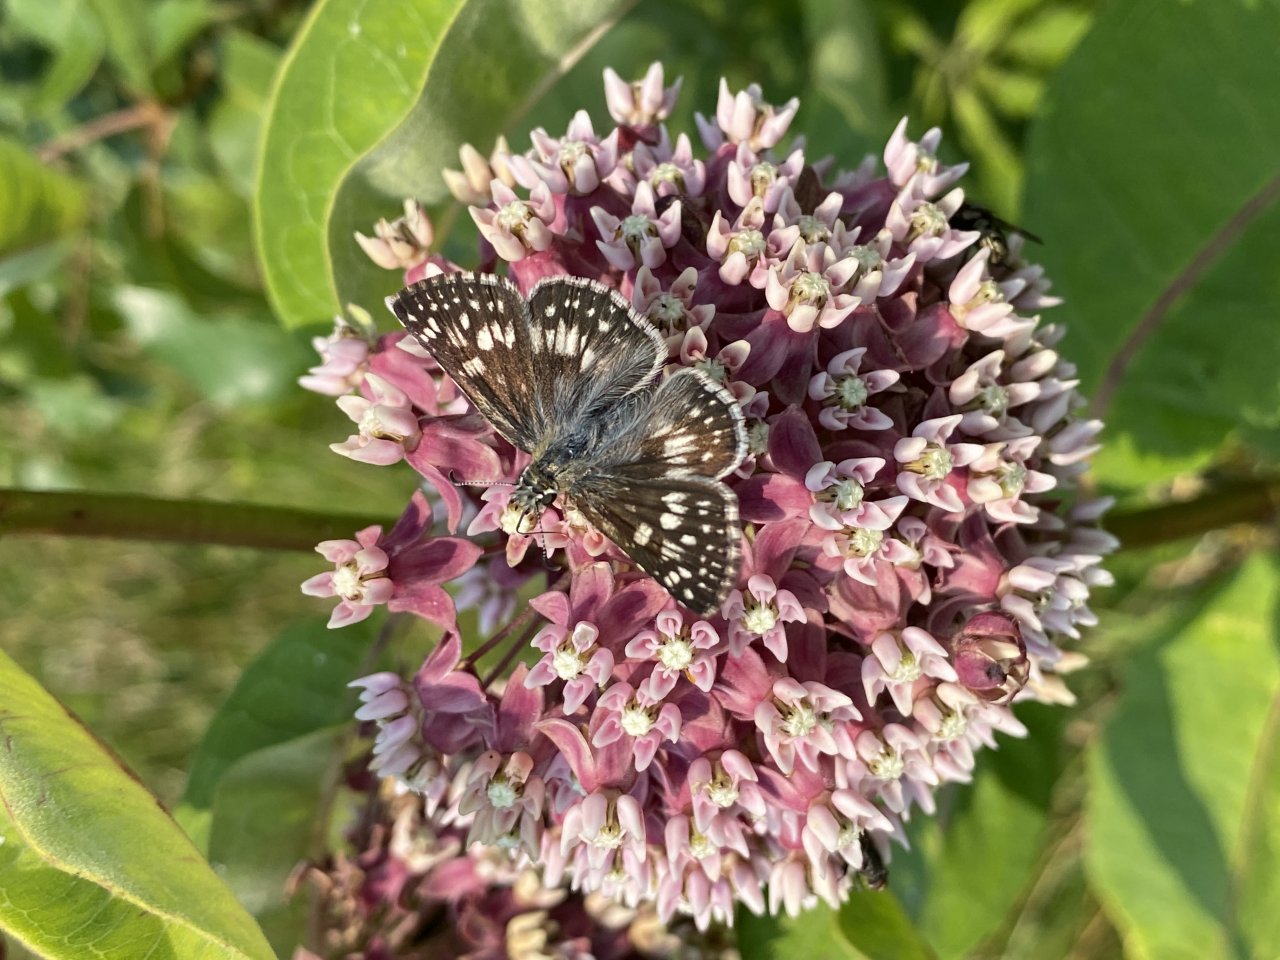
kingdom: Animalia
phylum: Arthropoda
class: Insecta
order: Lepidoptera
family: Hesperiidae
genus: Pyrgus
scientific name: Pyrgus communis
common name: Common Checkered-Skipper
